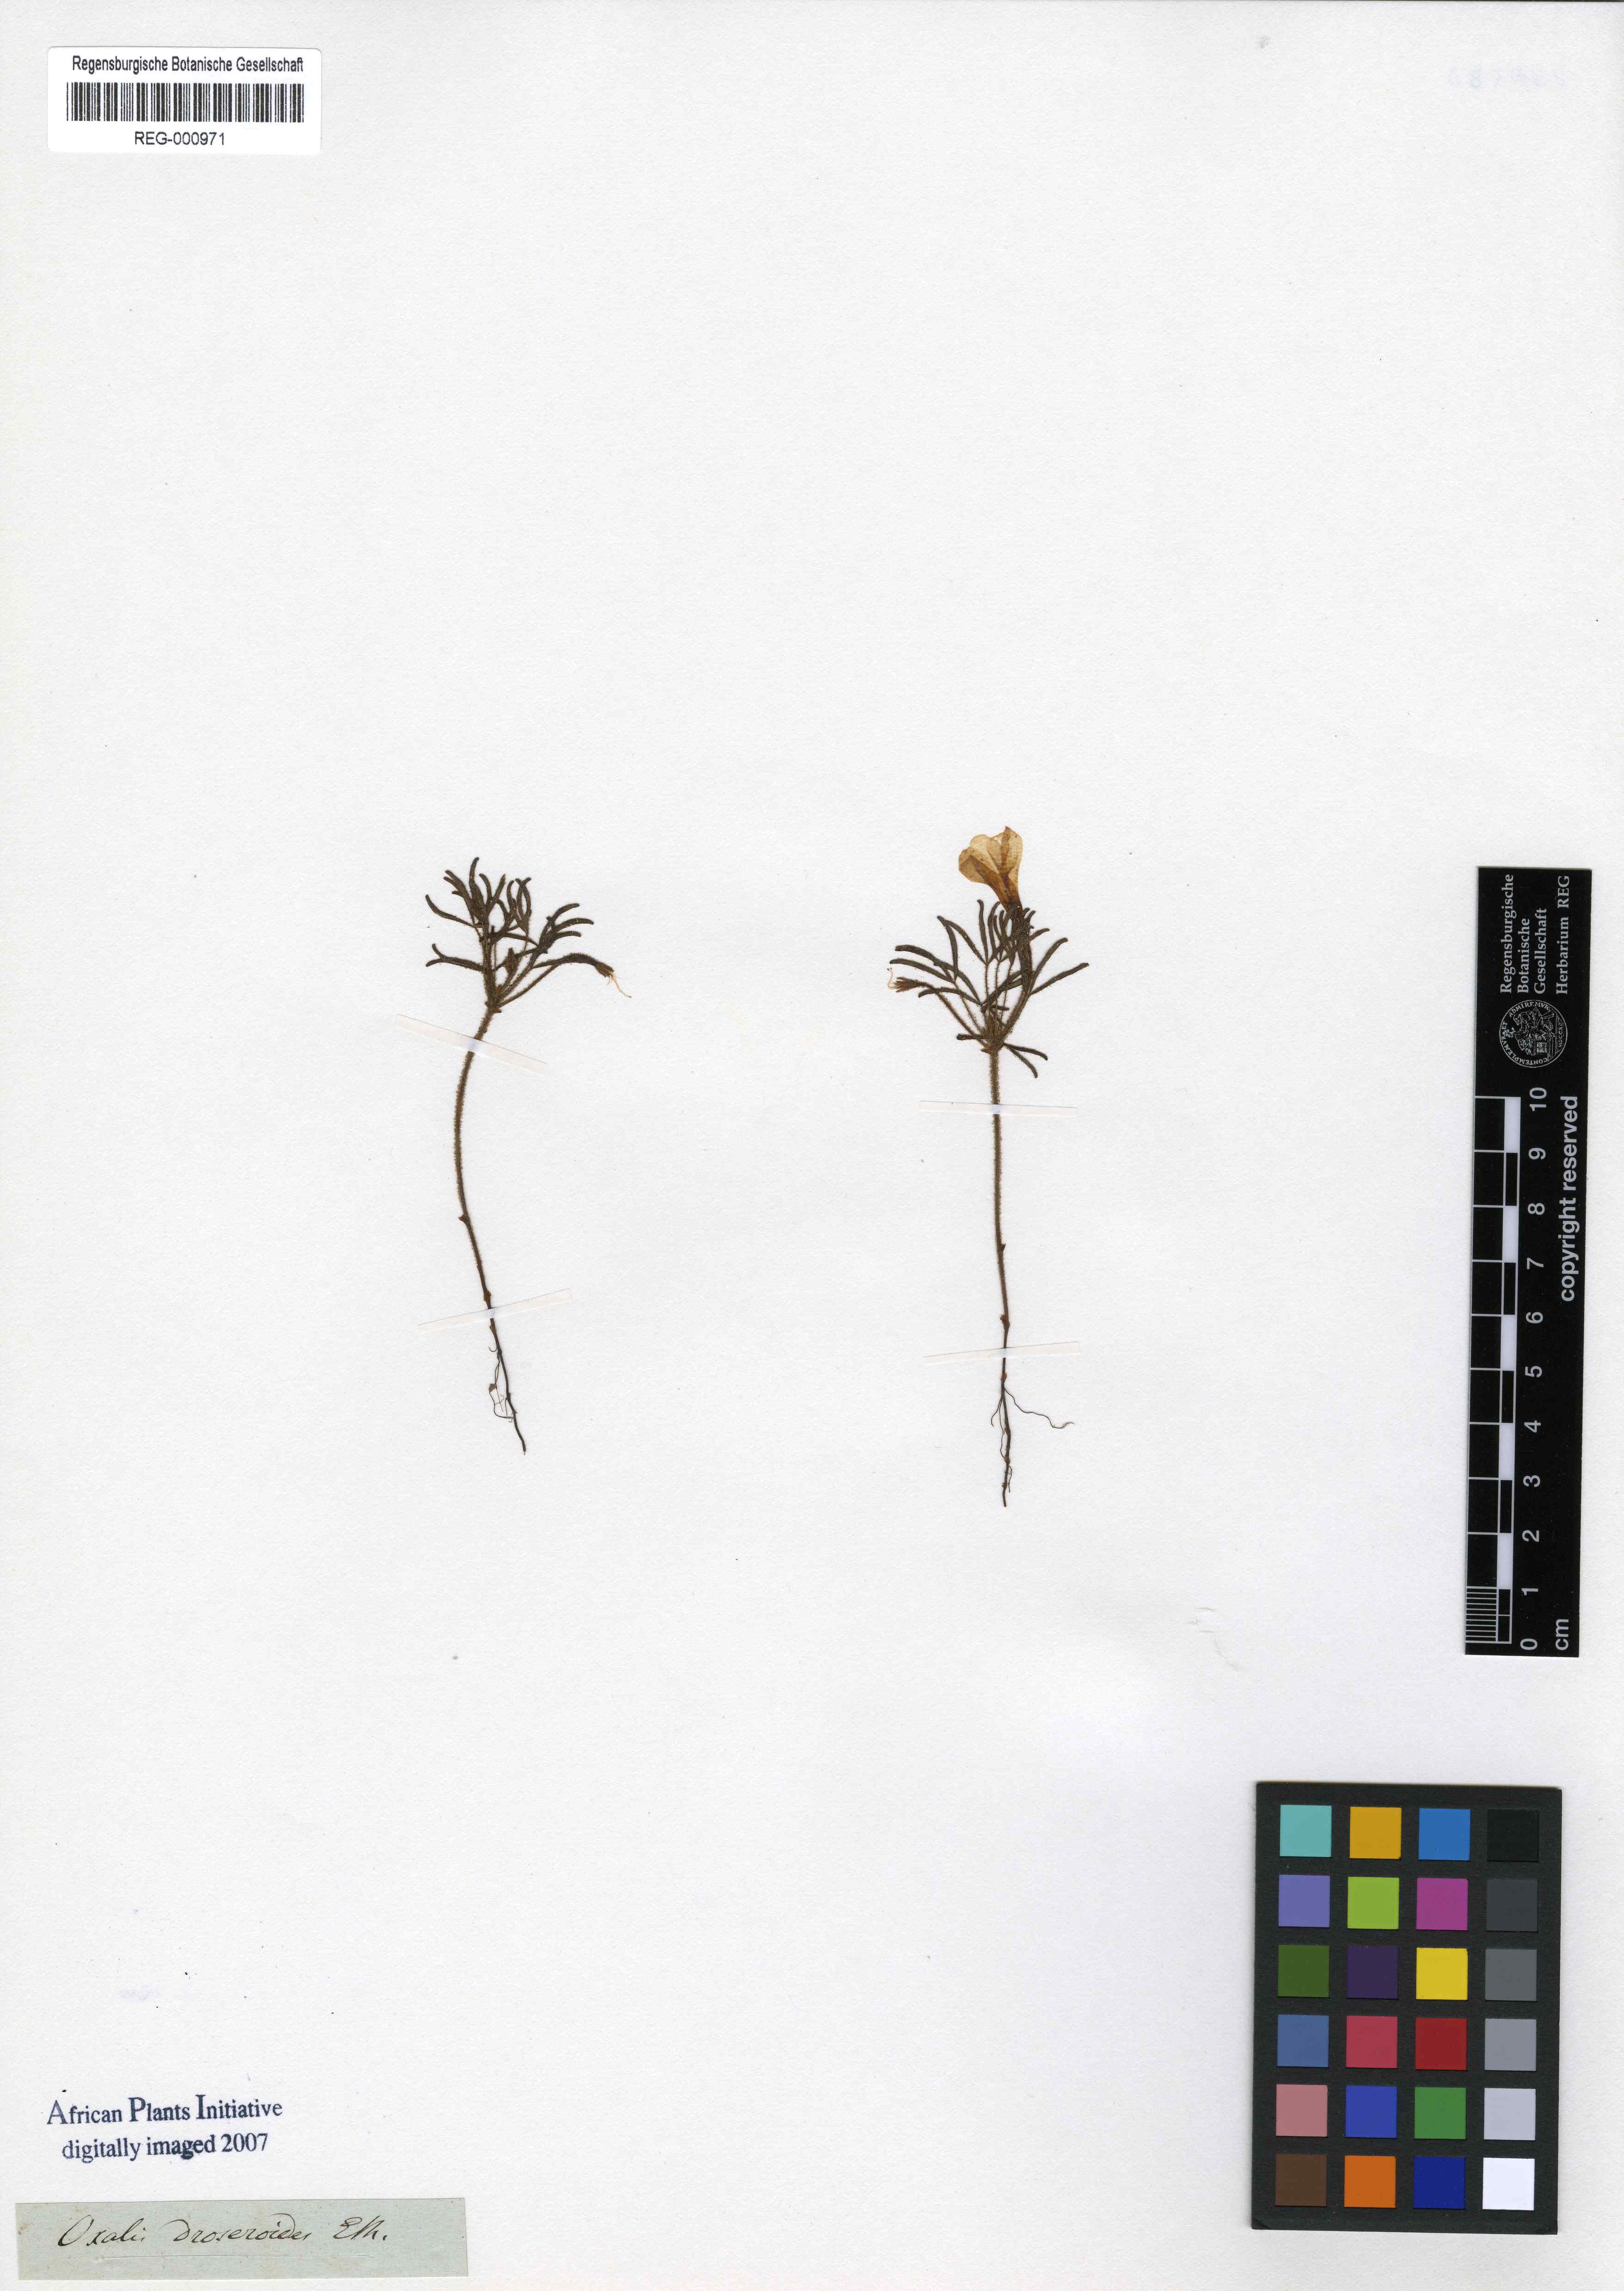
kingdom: Plantae
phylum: Tracheophyta
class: Magnoliopsida
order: Oxalidales
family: Oxalidaceae
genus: Oxalis
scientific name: Oxalis droseroides
